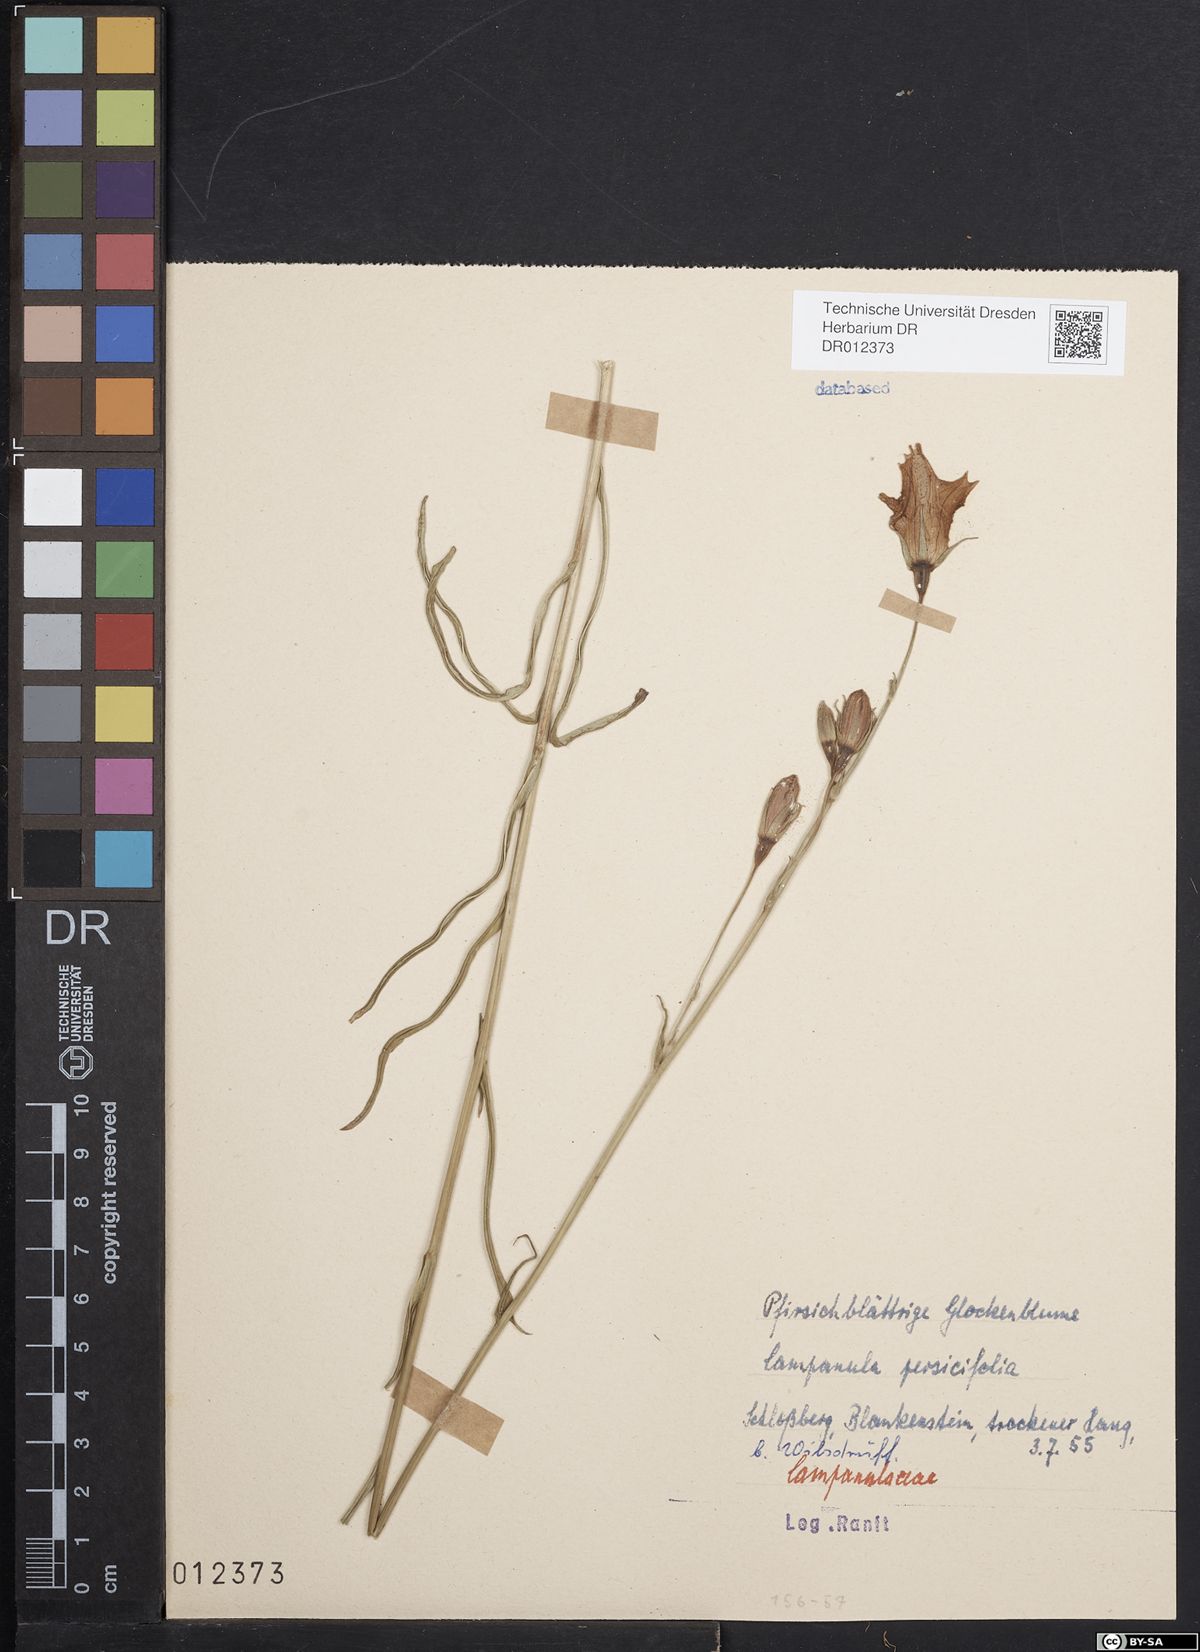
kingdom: Plantae
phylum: Tracheophyta
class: Magnoliopsida
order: Asterales
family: Campanulaceae
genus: Campanula
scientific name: Campanula persicifolia
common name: Peach-leaved bellflower
